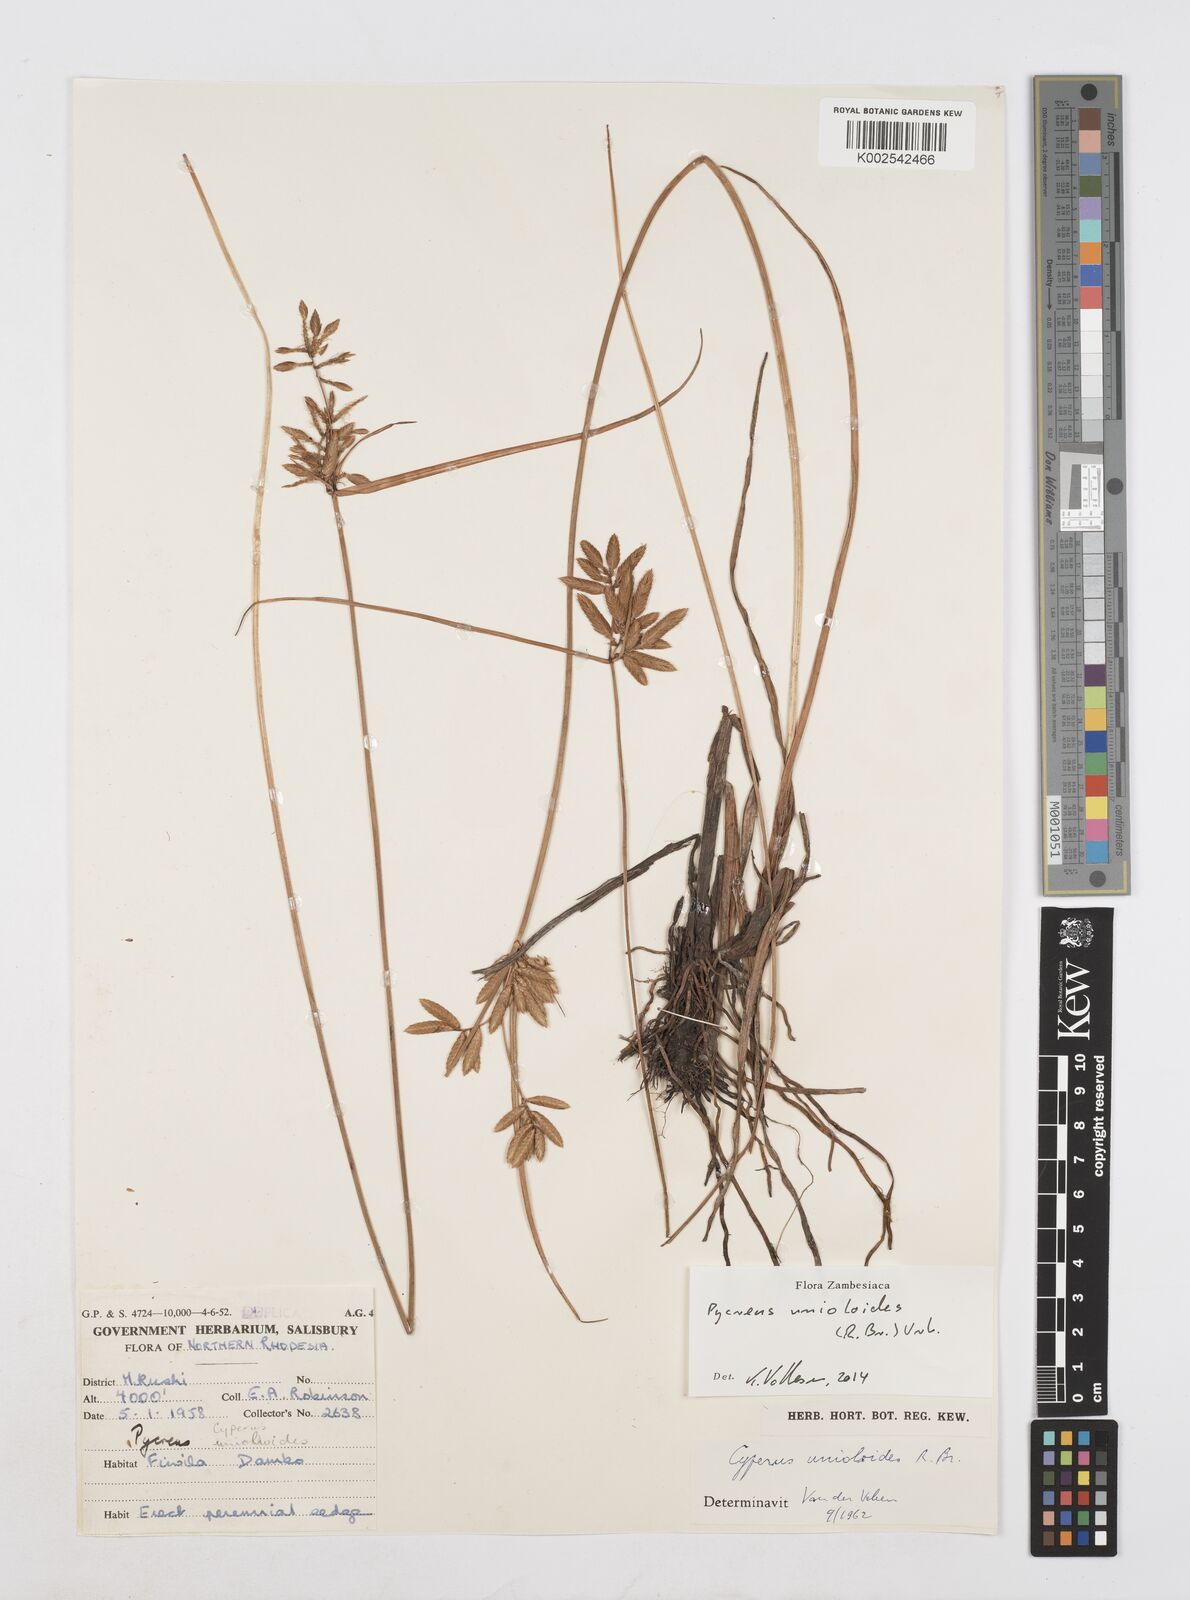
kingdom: Plantae
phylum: Tracheophyta
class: Liliopsida
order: Poales
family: Cyperaceae
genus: Cyperus
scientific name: Cyperus unioloides
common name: Uniola flatsedge
